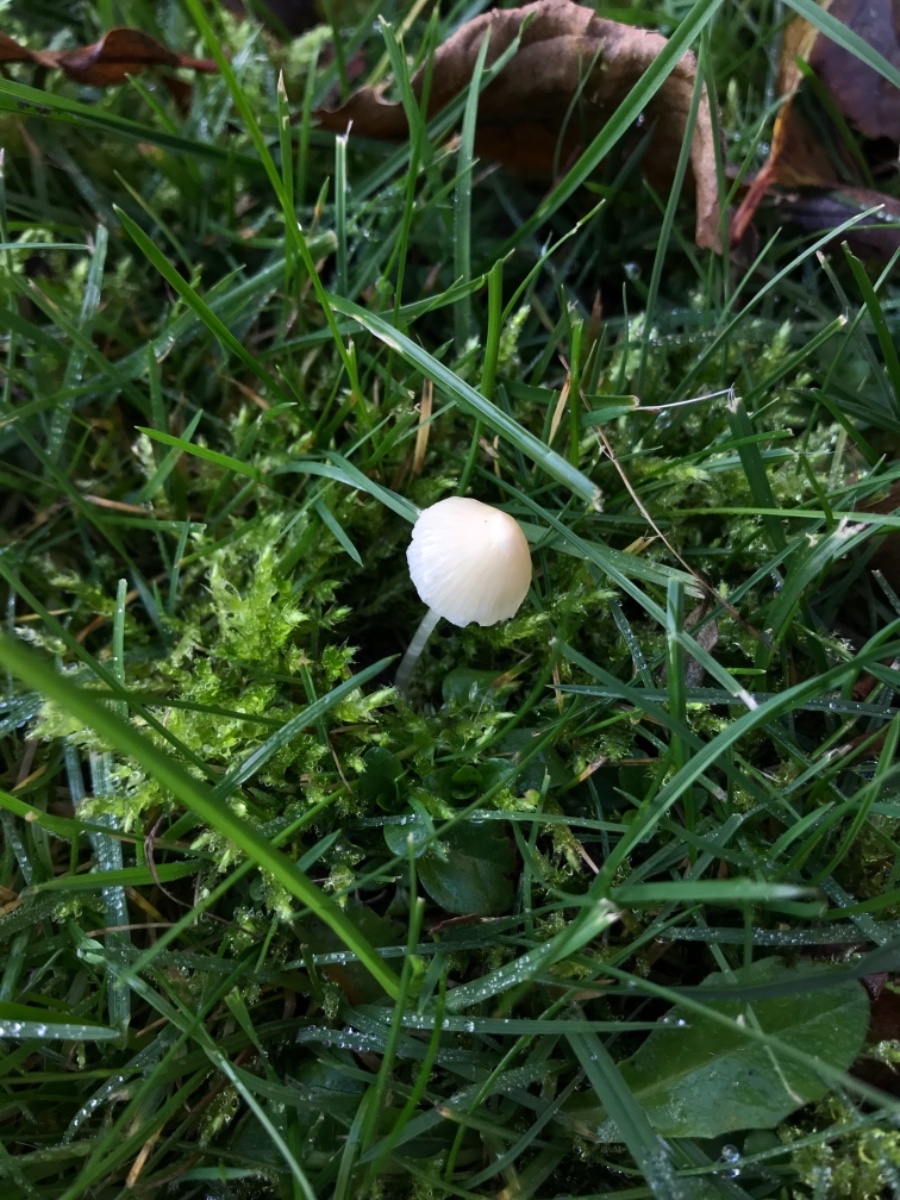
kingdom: Fungi
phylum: Basidiomycota
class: Agaricomycetes
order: Agaricales
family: Mycenaceae
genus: Atheniella
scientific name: Atheniella flavoalba
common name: gulhvid huesvamp
